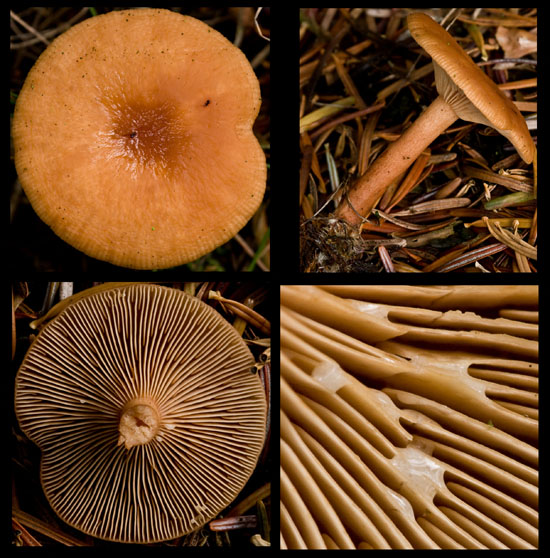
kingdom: Fungi
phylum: Basidiomycota
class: Agaricomycetes
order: Russulales
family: Russulaceae
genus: Lactarius
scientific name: Lactarius tabidus
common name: rynket mælkehat
